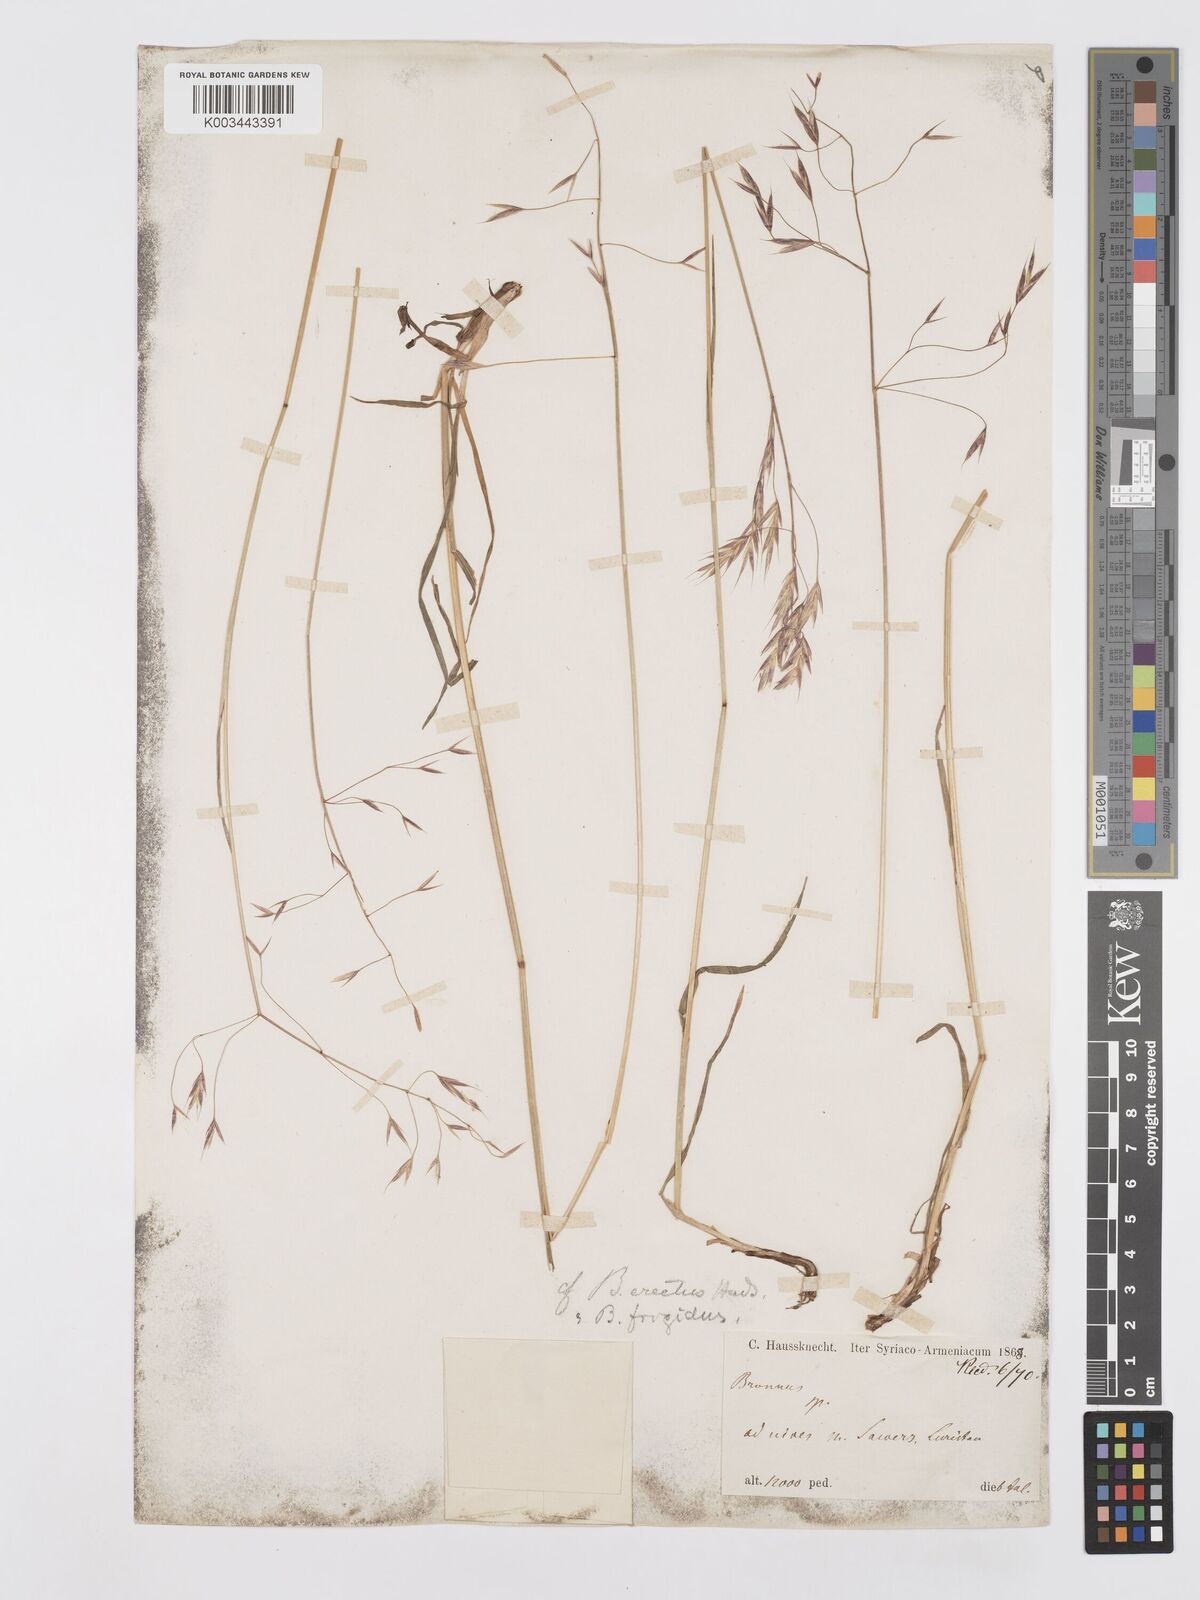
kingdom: Plantae
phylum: Tracheophyta
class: Liliopsida
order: Poales
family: Poaceae
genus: Bromus
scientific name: Bromus frigidus
